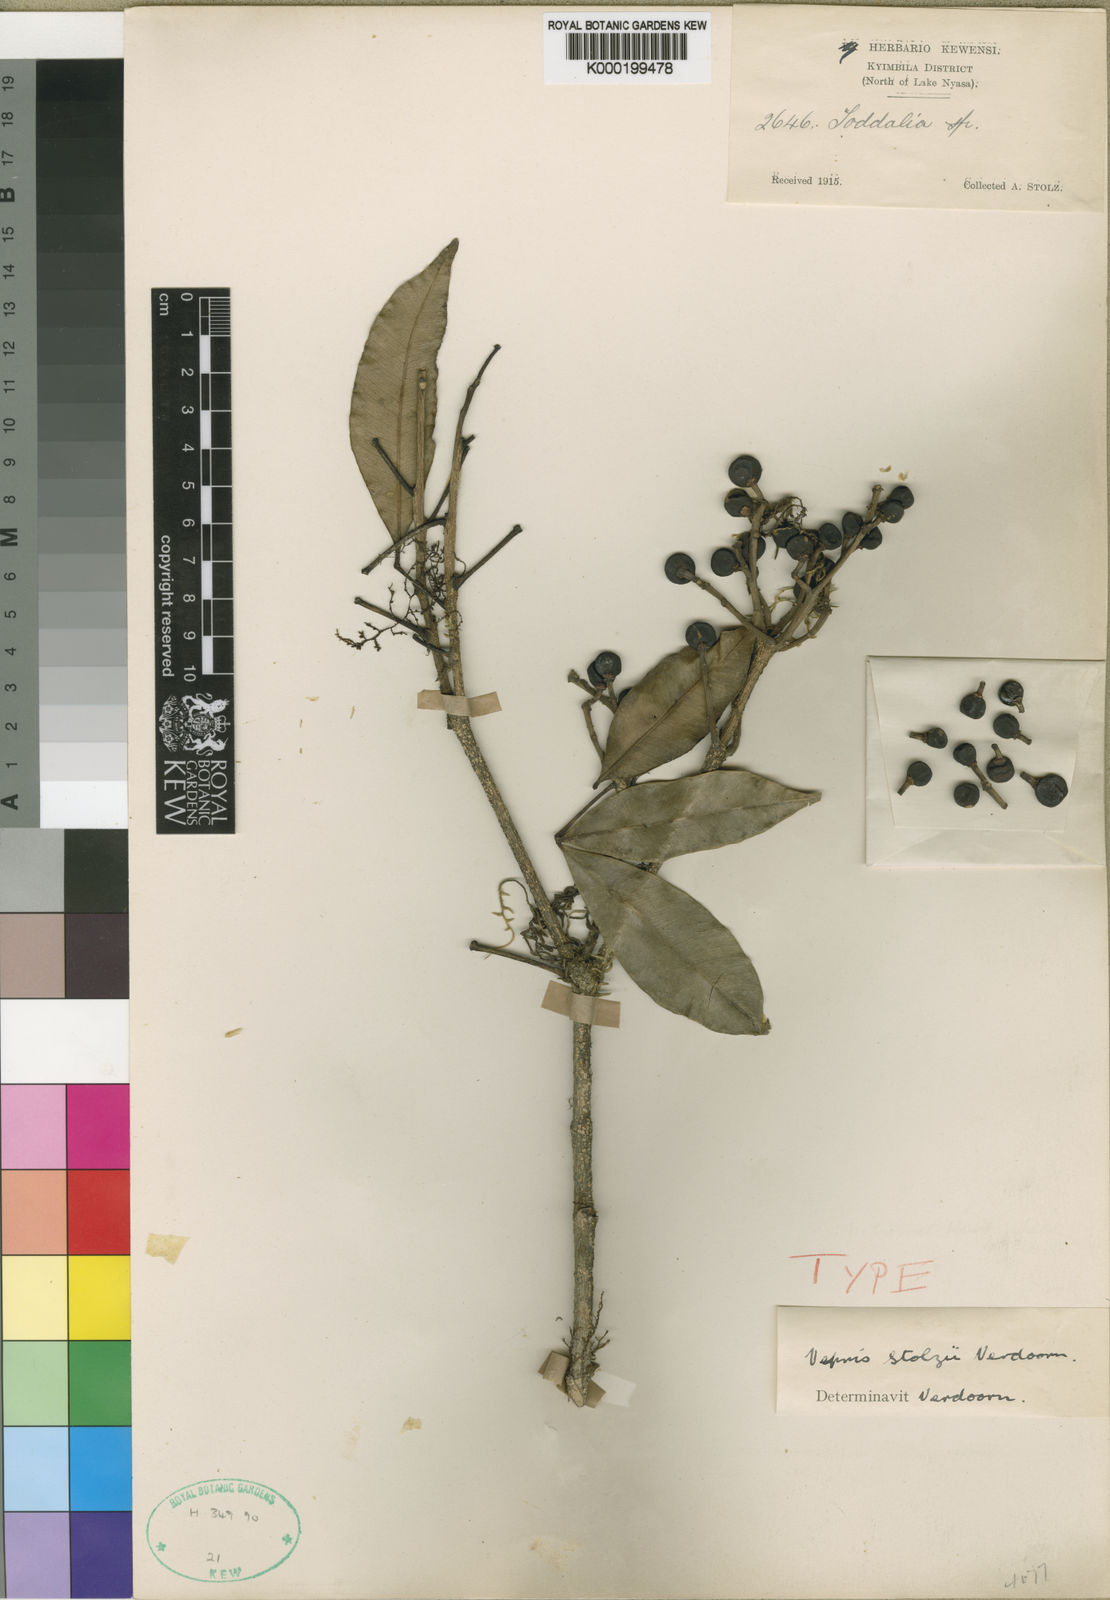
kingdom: Plantae
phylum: Tracheophyta
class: Magnoliopsida
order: Sapindales
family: Rutaceae
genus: Vepris
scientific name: Vepris stolzii
